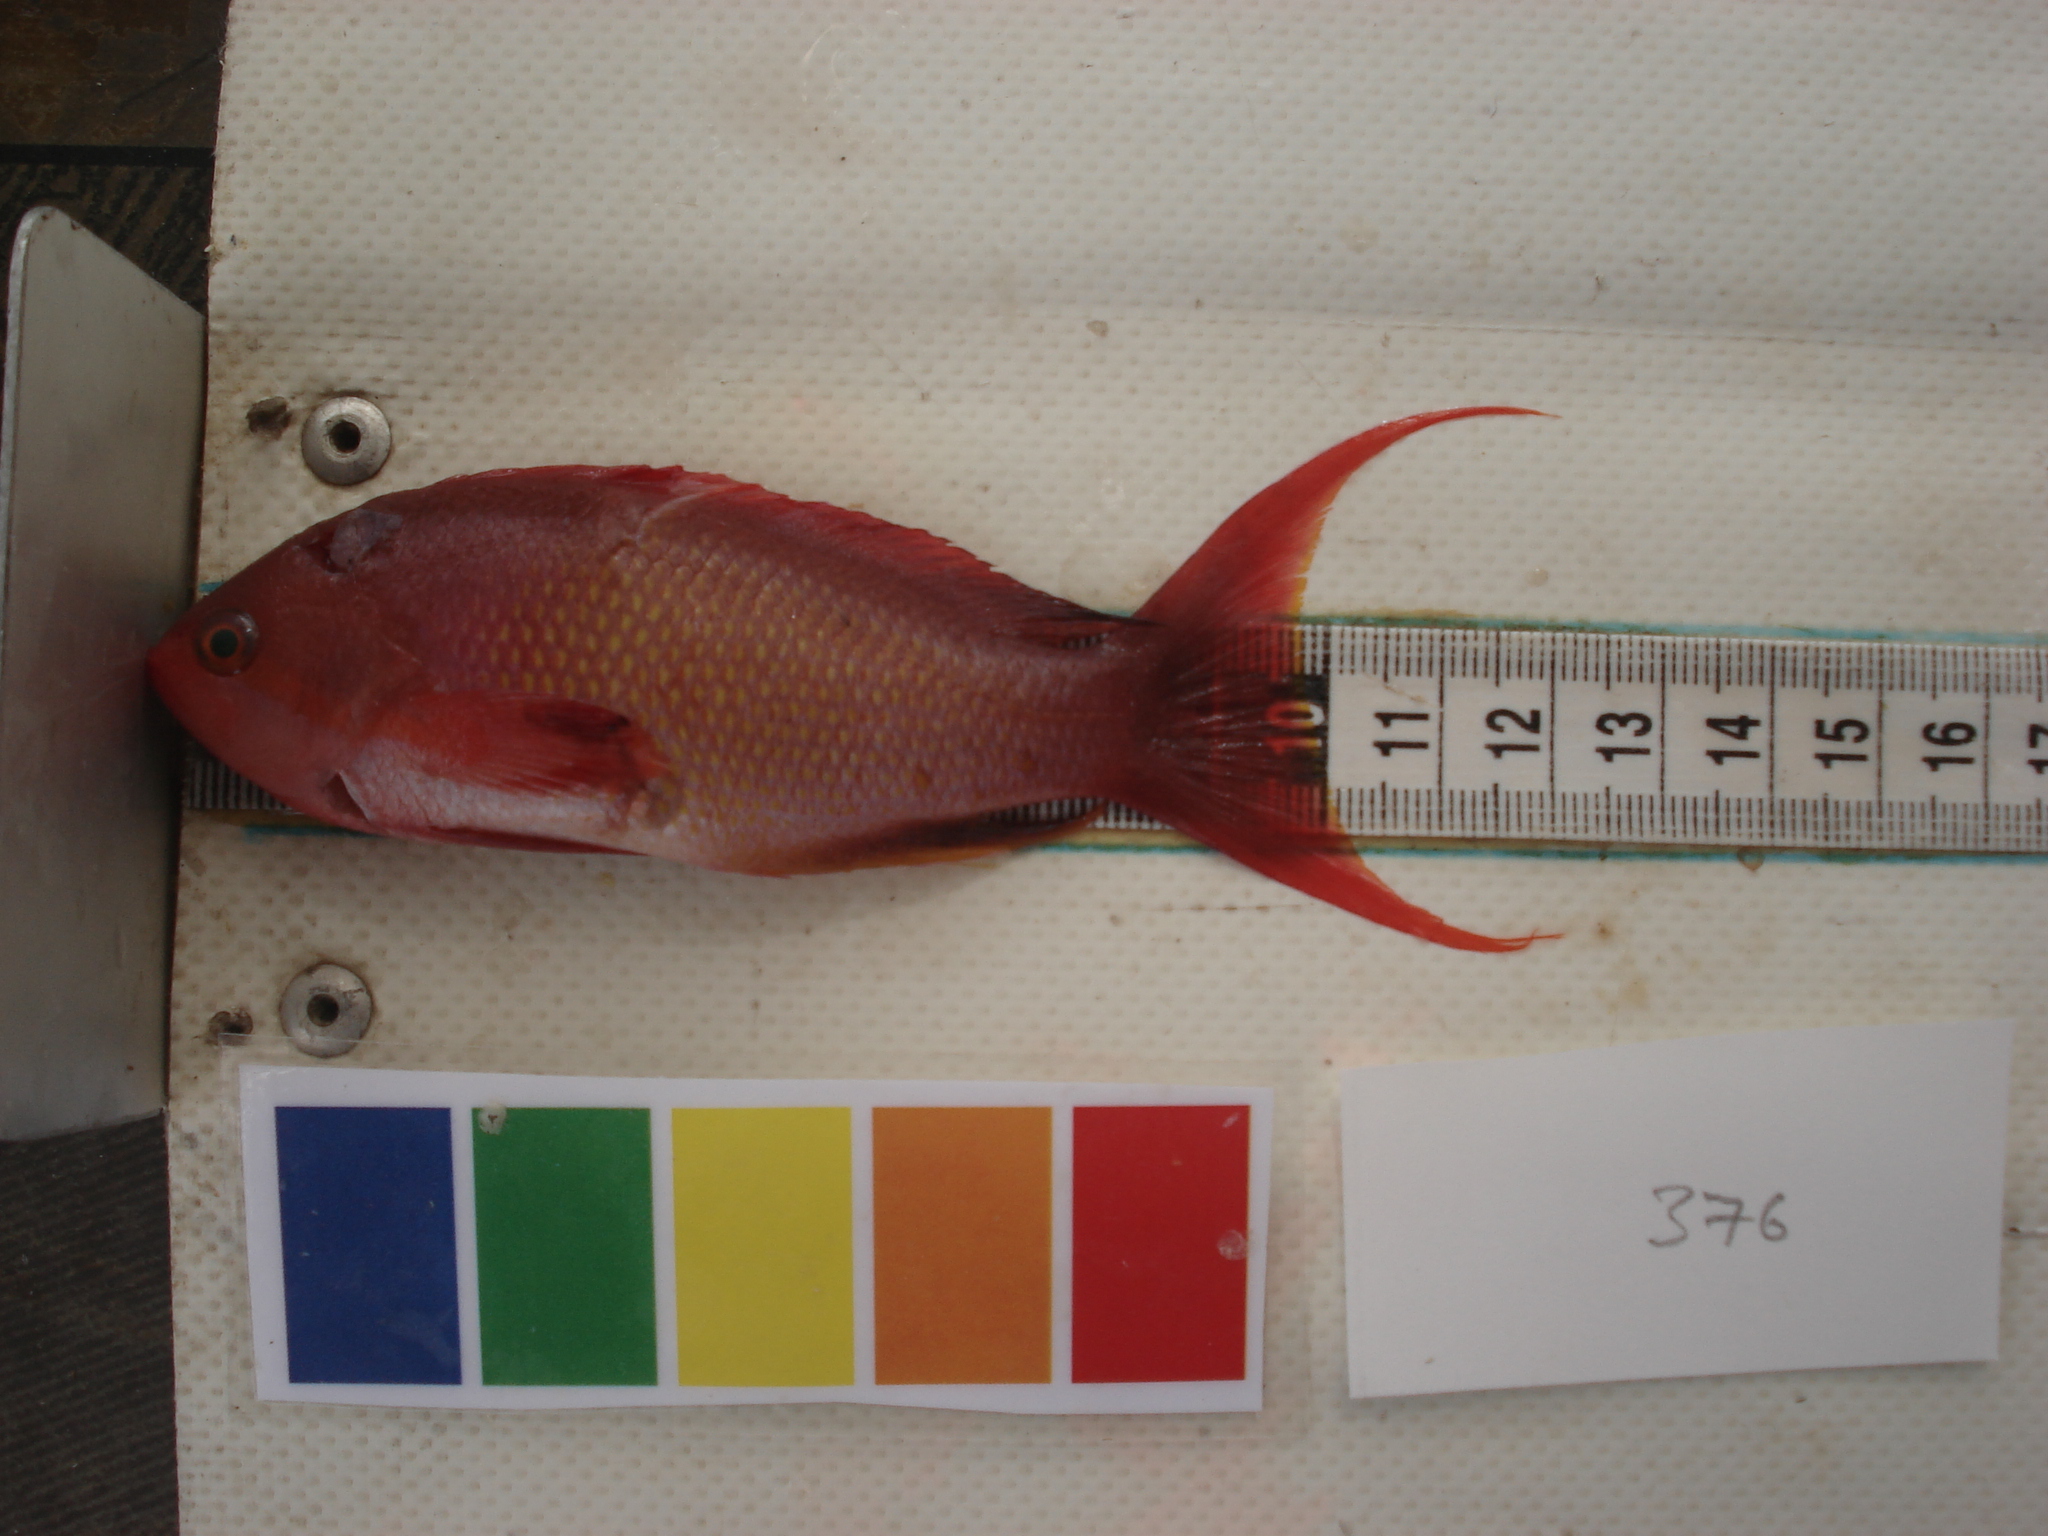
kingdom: Animalia
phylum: Chordata
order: Perciformes
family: Serranidae
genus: Pseudanthias
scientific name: Pseudanthias squamipinnis
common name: Scalefin anthias
